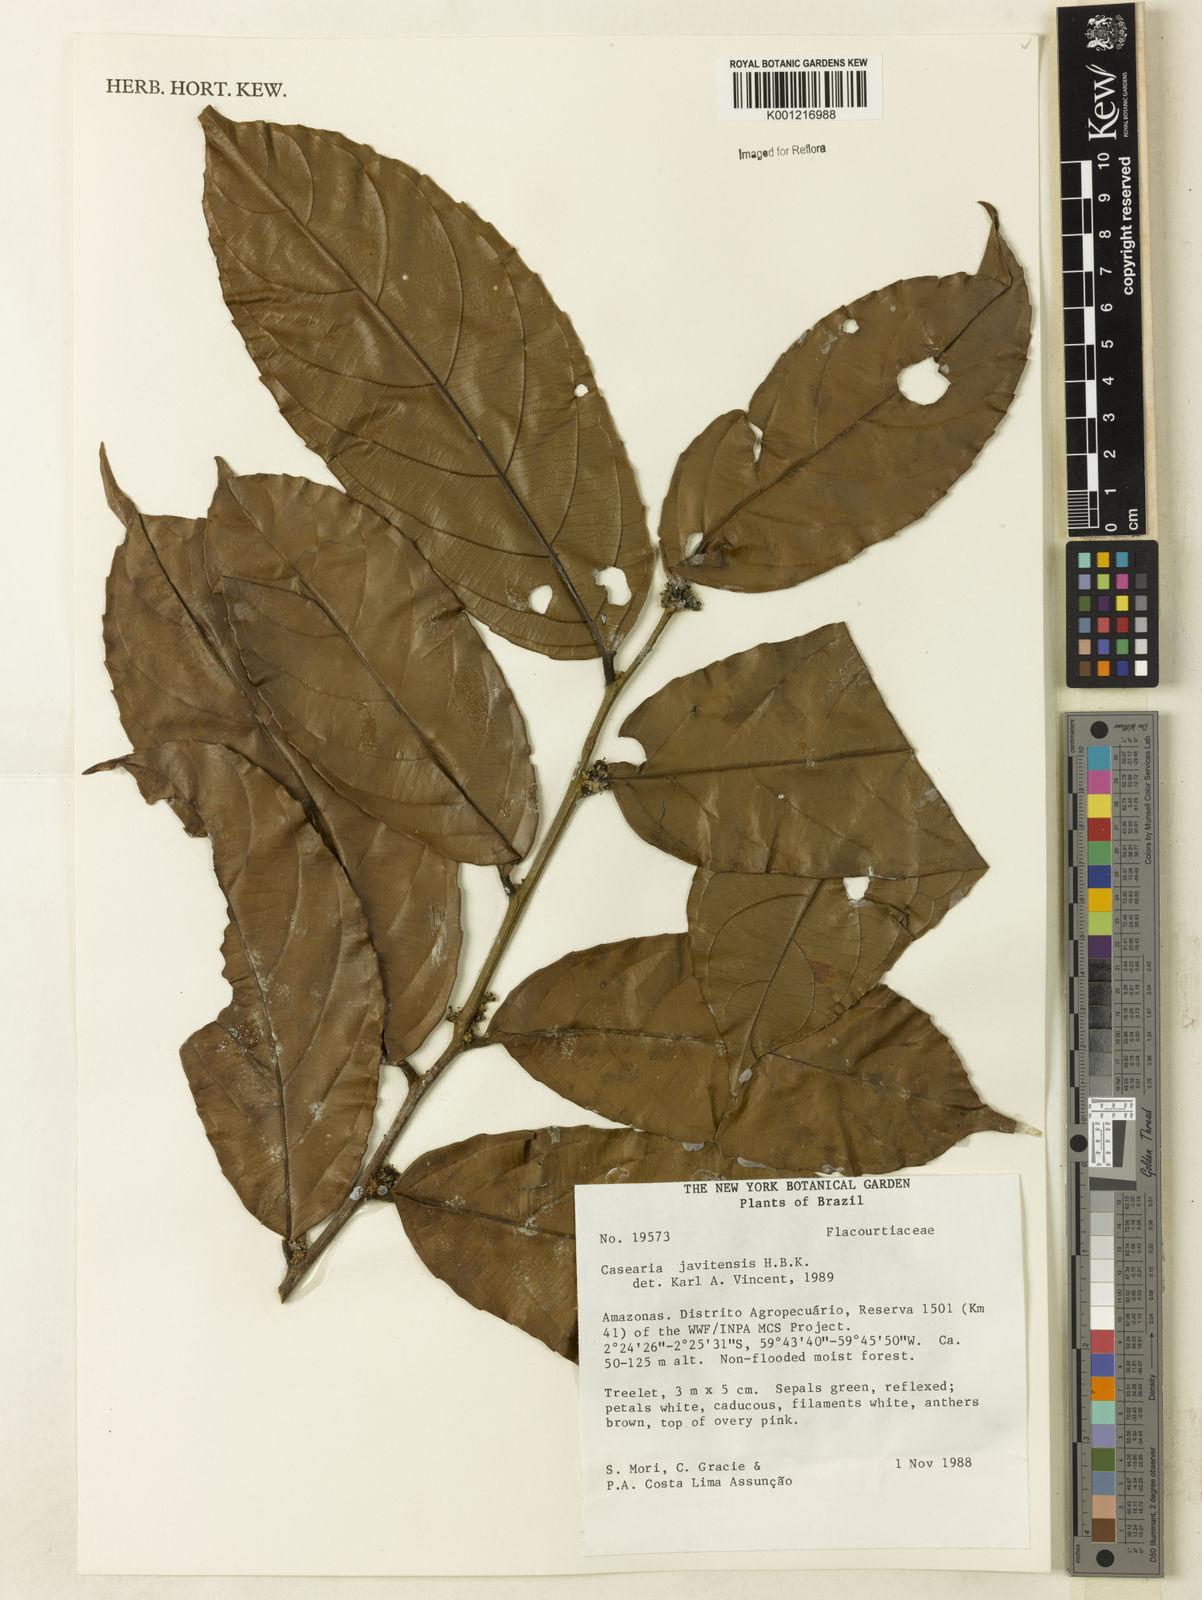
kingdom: Plantae
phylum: Tracheophyta
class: Magnoliopsida
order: Malpighiales
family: Salicaceae
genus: Piparea
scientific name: Piparea multiflora
